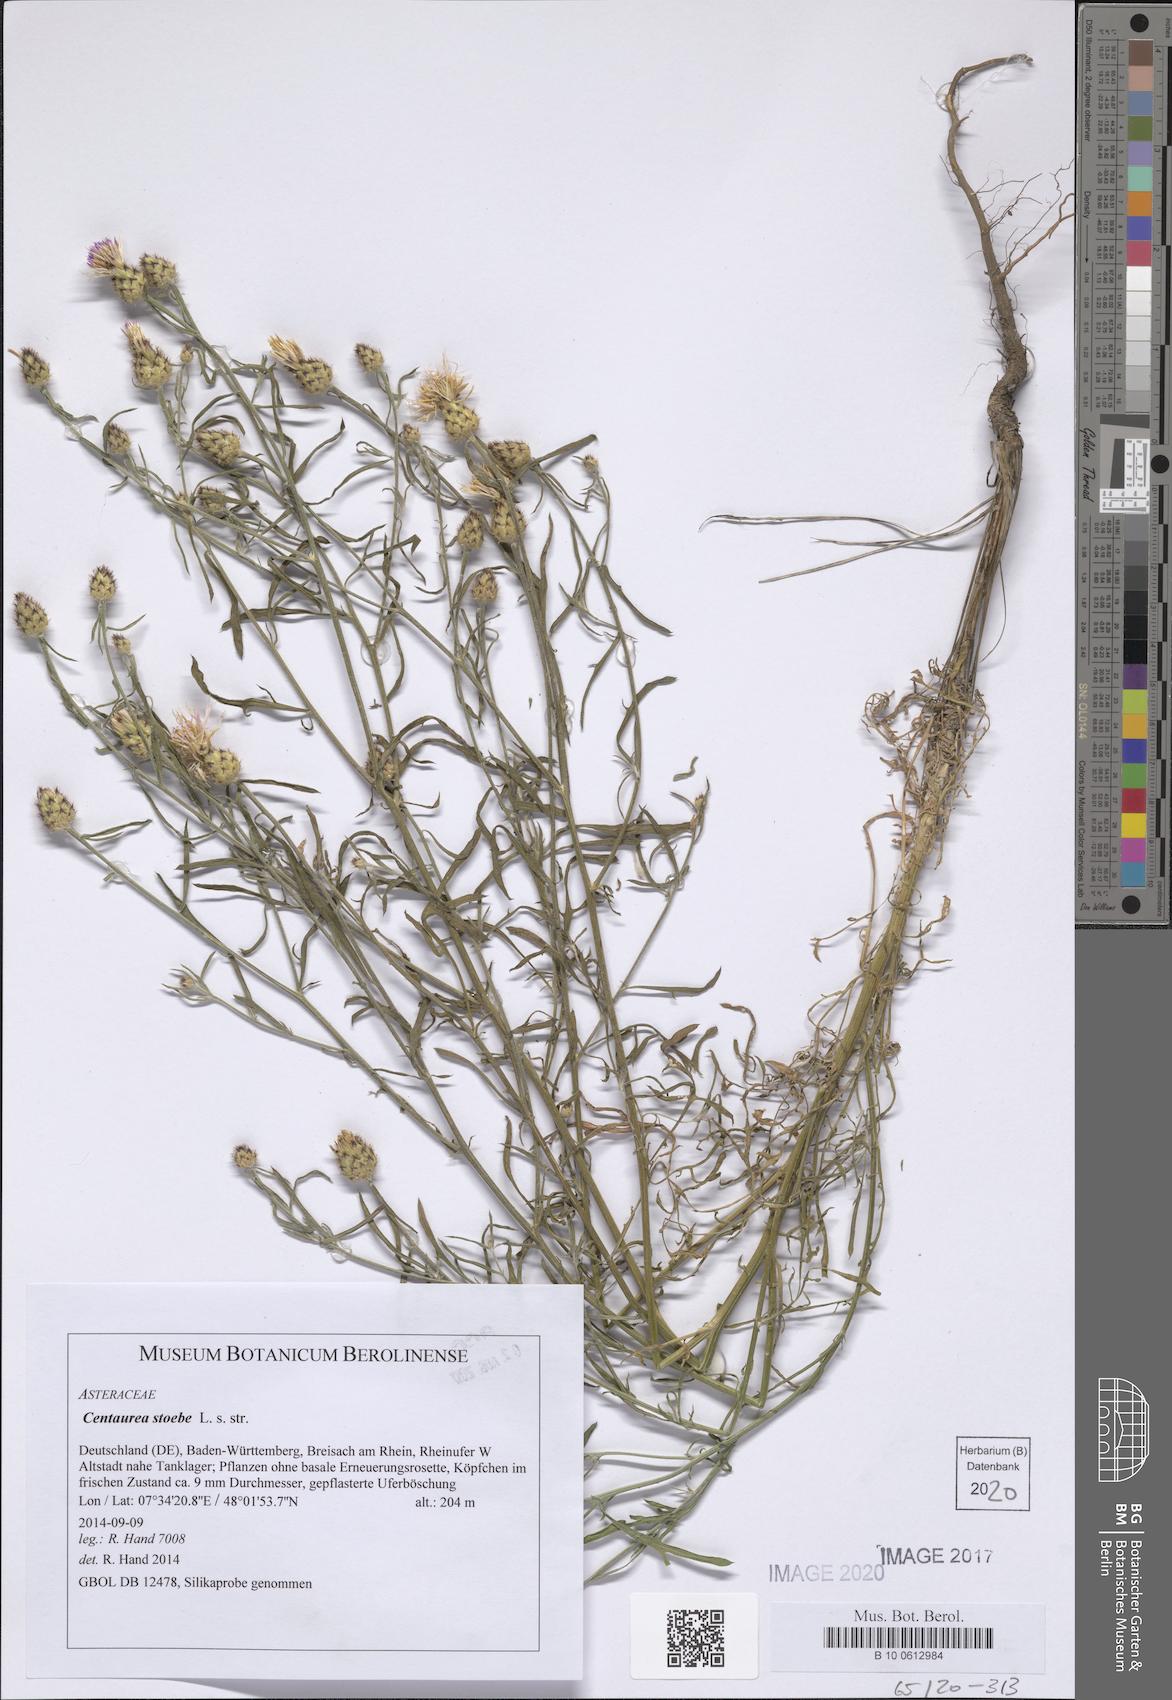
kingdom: Plantae
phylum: Tracheophyta
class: Magnoliopsida
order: Asterales
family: Asteraceae
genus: Centaurea
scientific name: Centaurea stoebe
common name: Spotted knapweed
